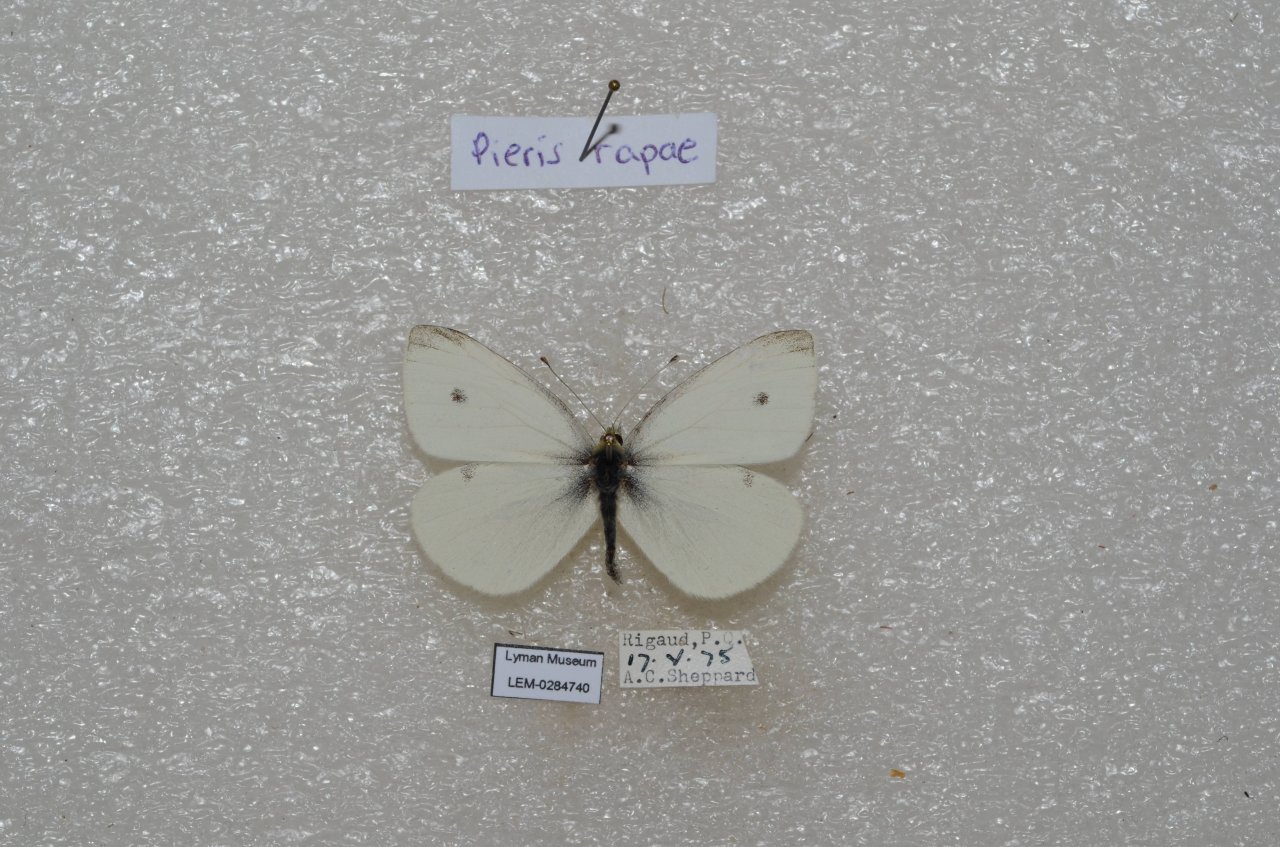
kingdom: Animalia
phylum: Arthropoda
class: Insecta
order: Lepidoptera
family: Pieridae
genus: Pieris
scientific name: Pieris rapae
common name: Cabbage White
